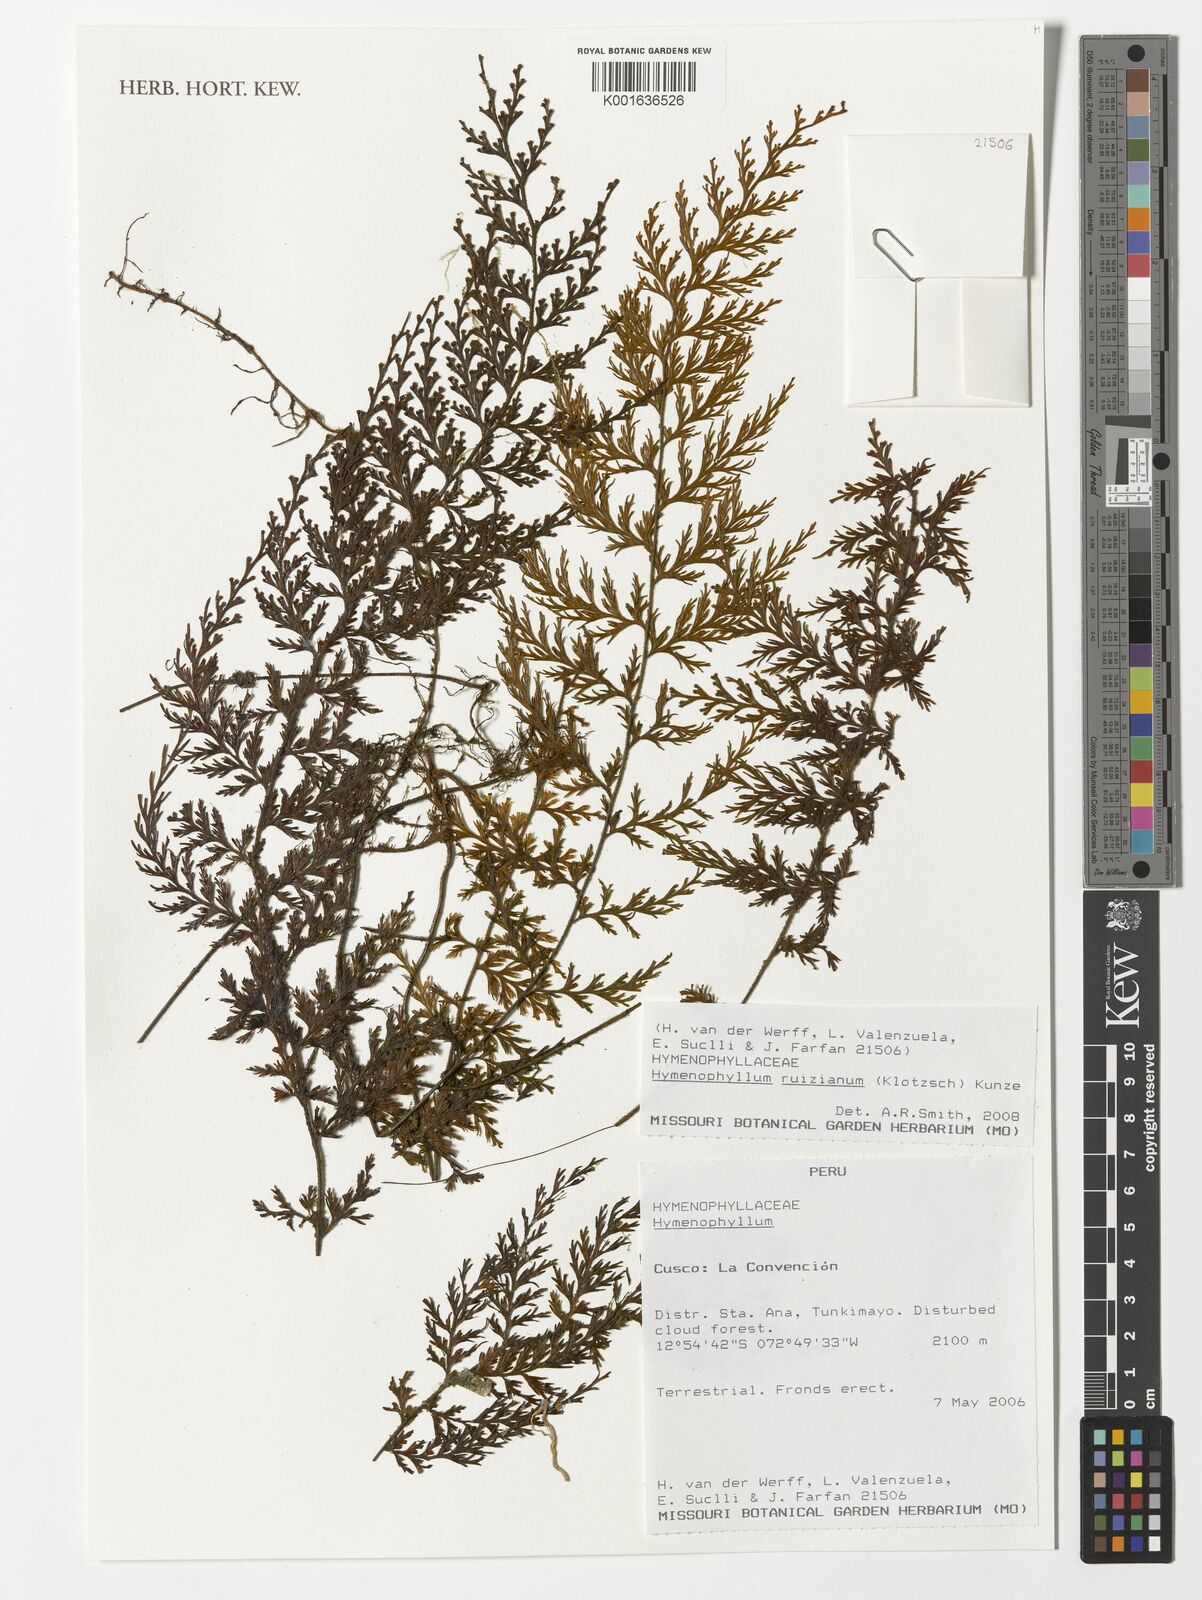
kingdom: Plantae
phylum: Tracheophyta
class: Polypodiopsida
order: Hymenophyllales
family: Hymenophyllaceae
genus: Hymenophyllum
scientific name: Hymenophyllum ruizianum
